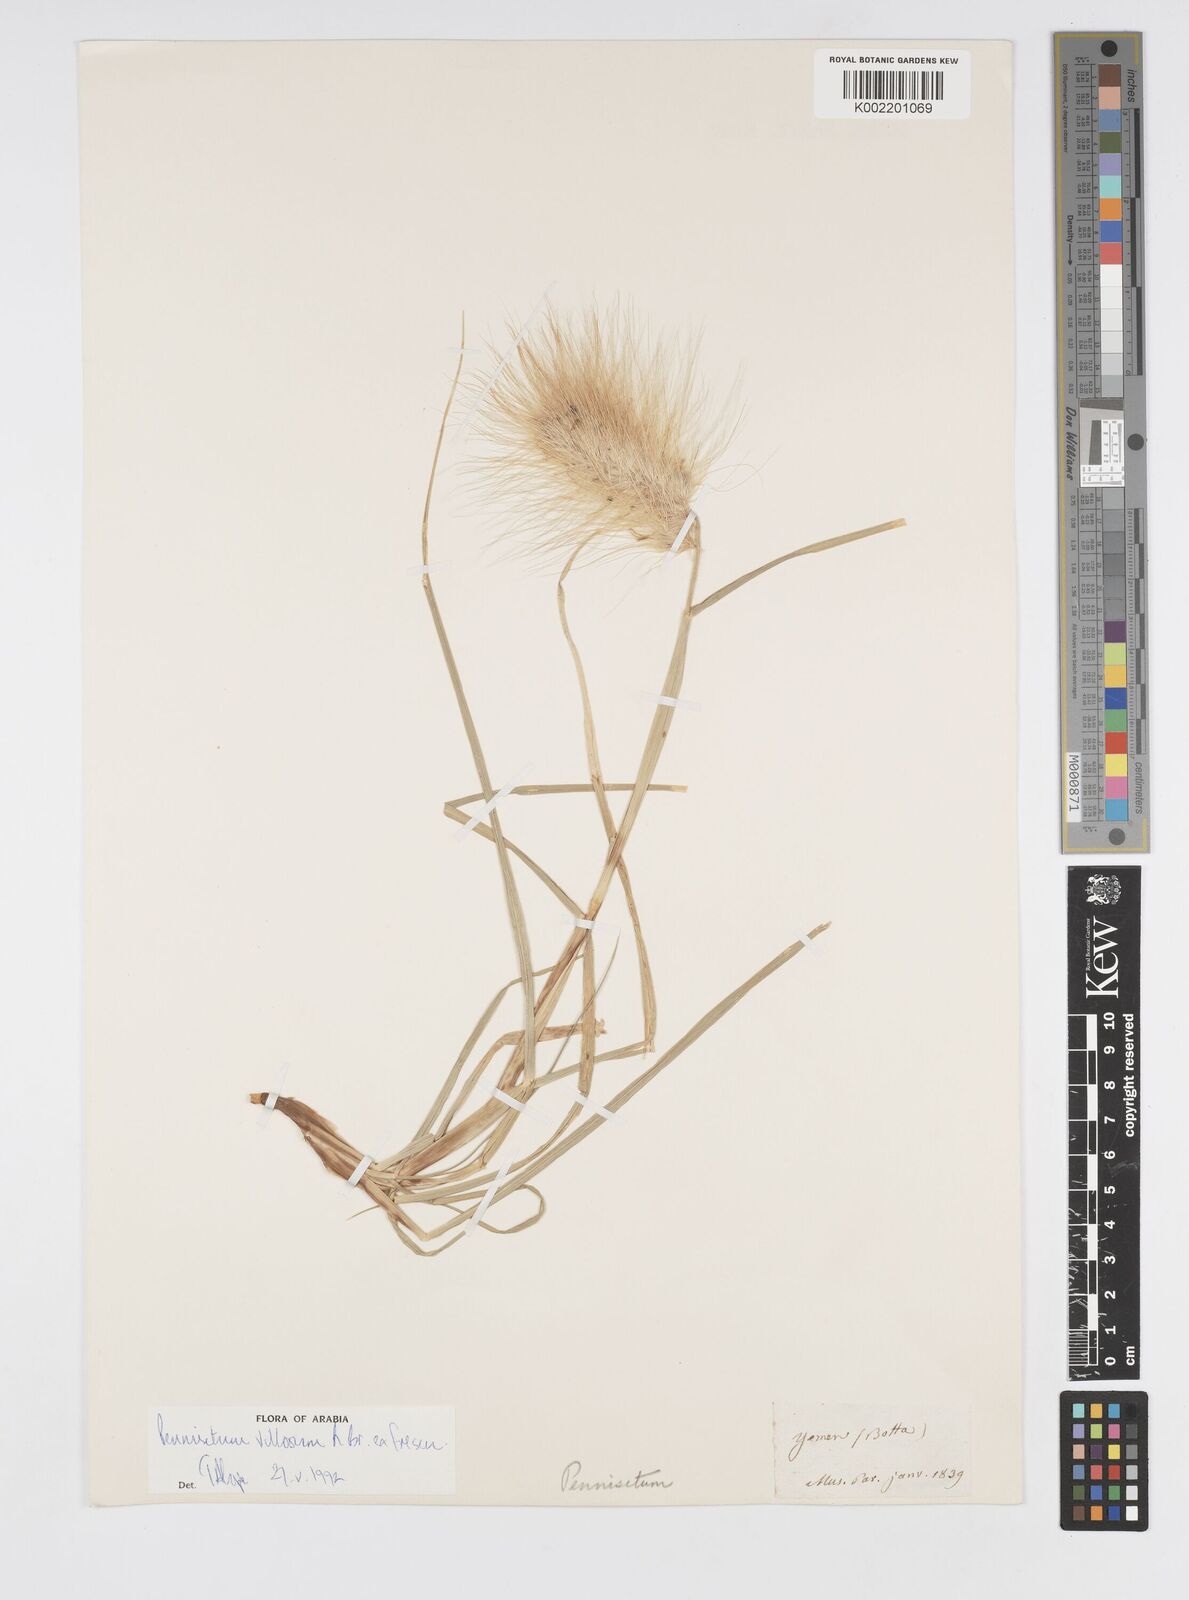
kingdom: Plantae
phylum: Tracheophyta
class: Liliopsida
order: Poales
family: Poaceae
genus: Cenchrus
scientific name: Cenchrus longisetus
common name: Feathertop
